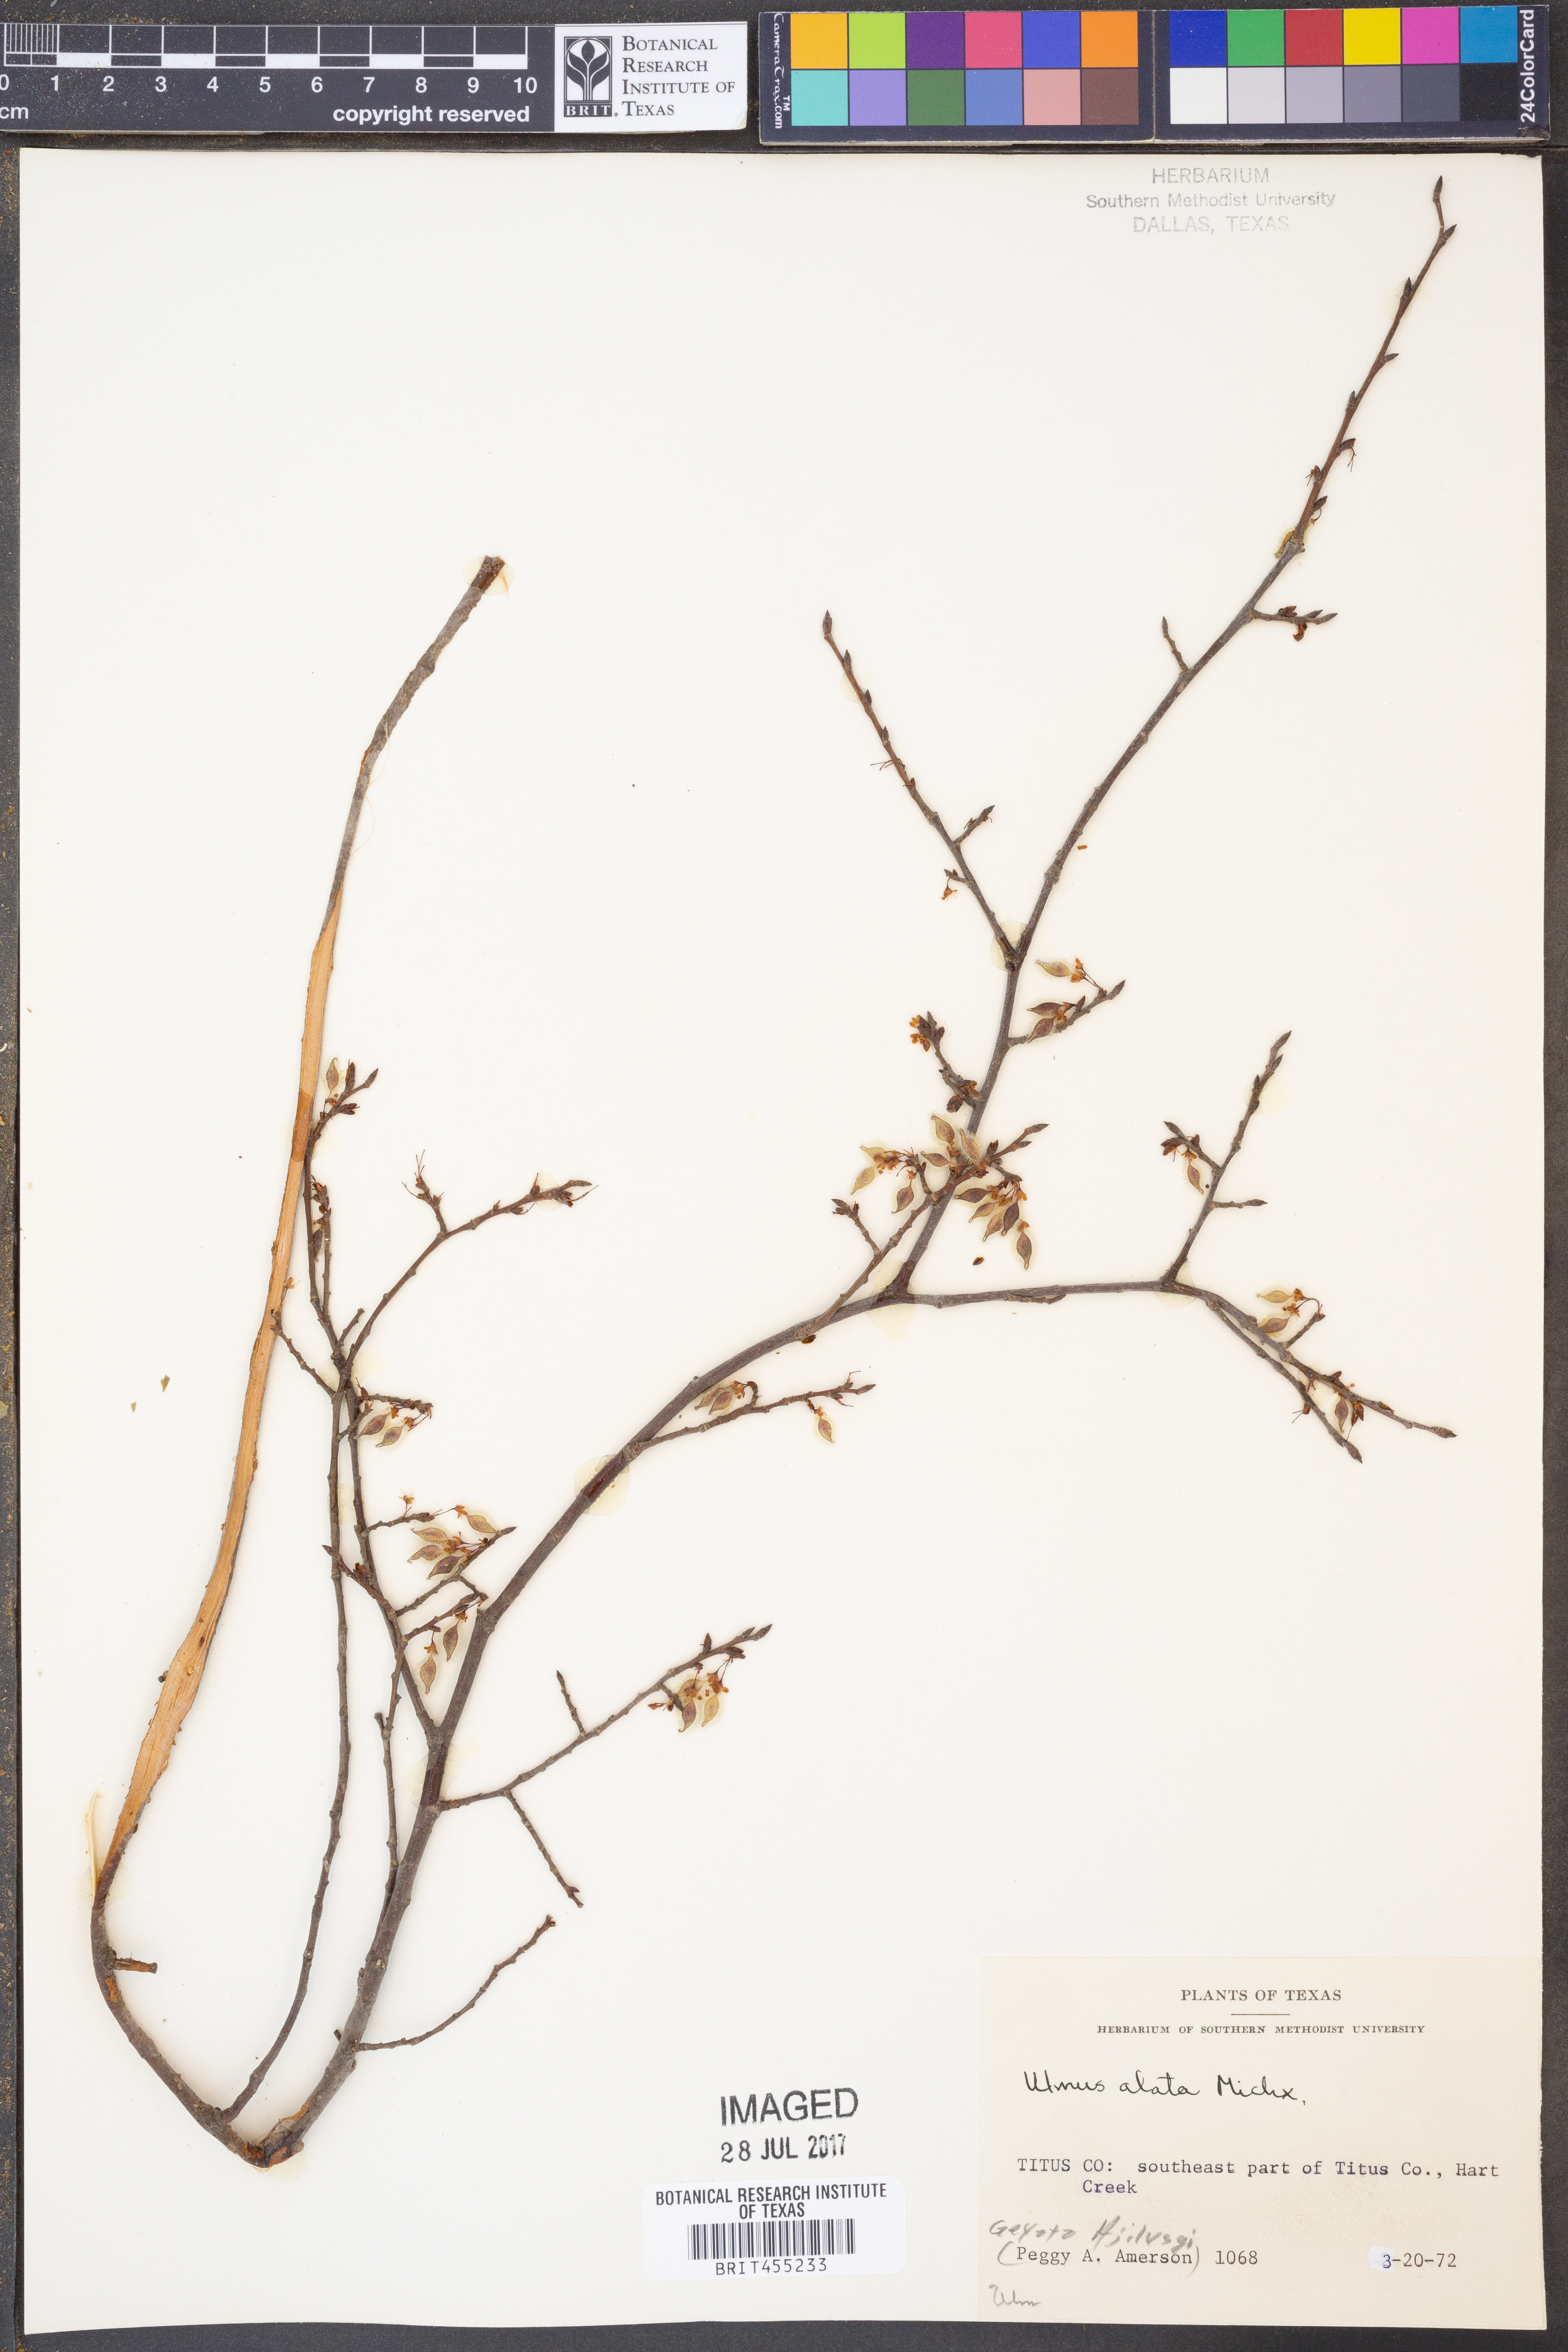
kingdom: Plantae
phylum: Tracheophyta
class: Magnoliopsida
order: Rosales
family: Ulmaceae
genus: Ulmus
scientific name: Ulmus alata
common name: Winged elm
